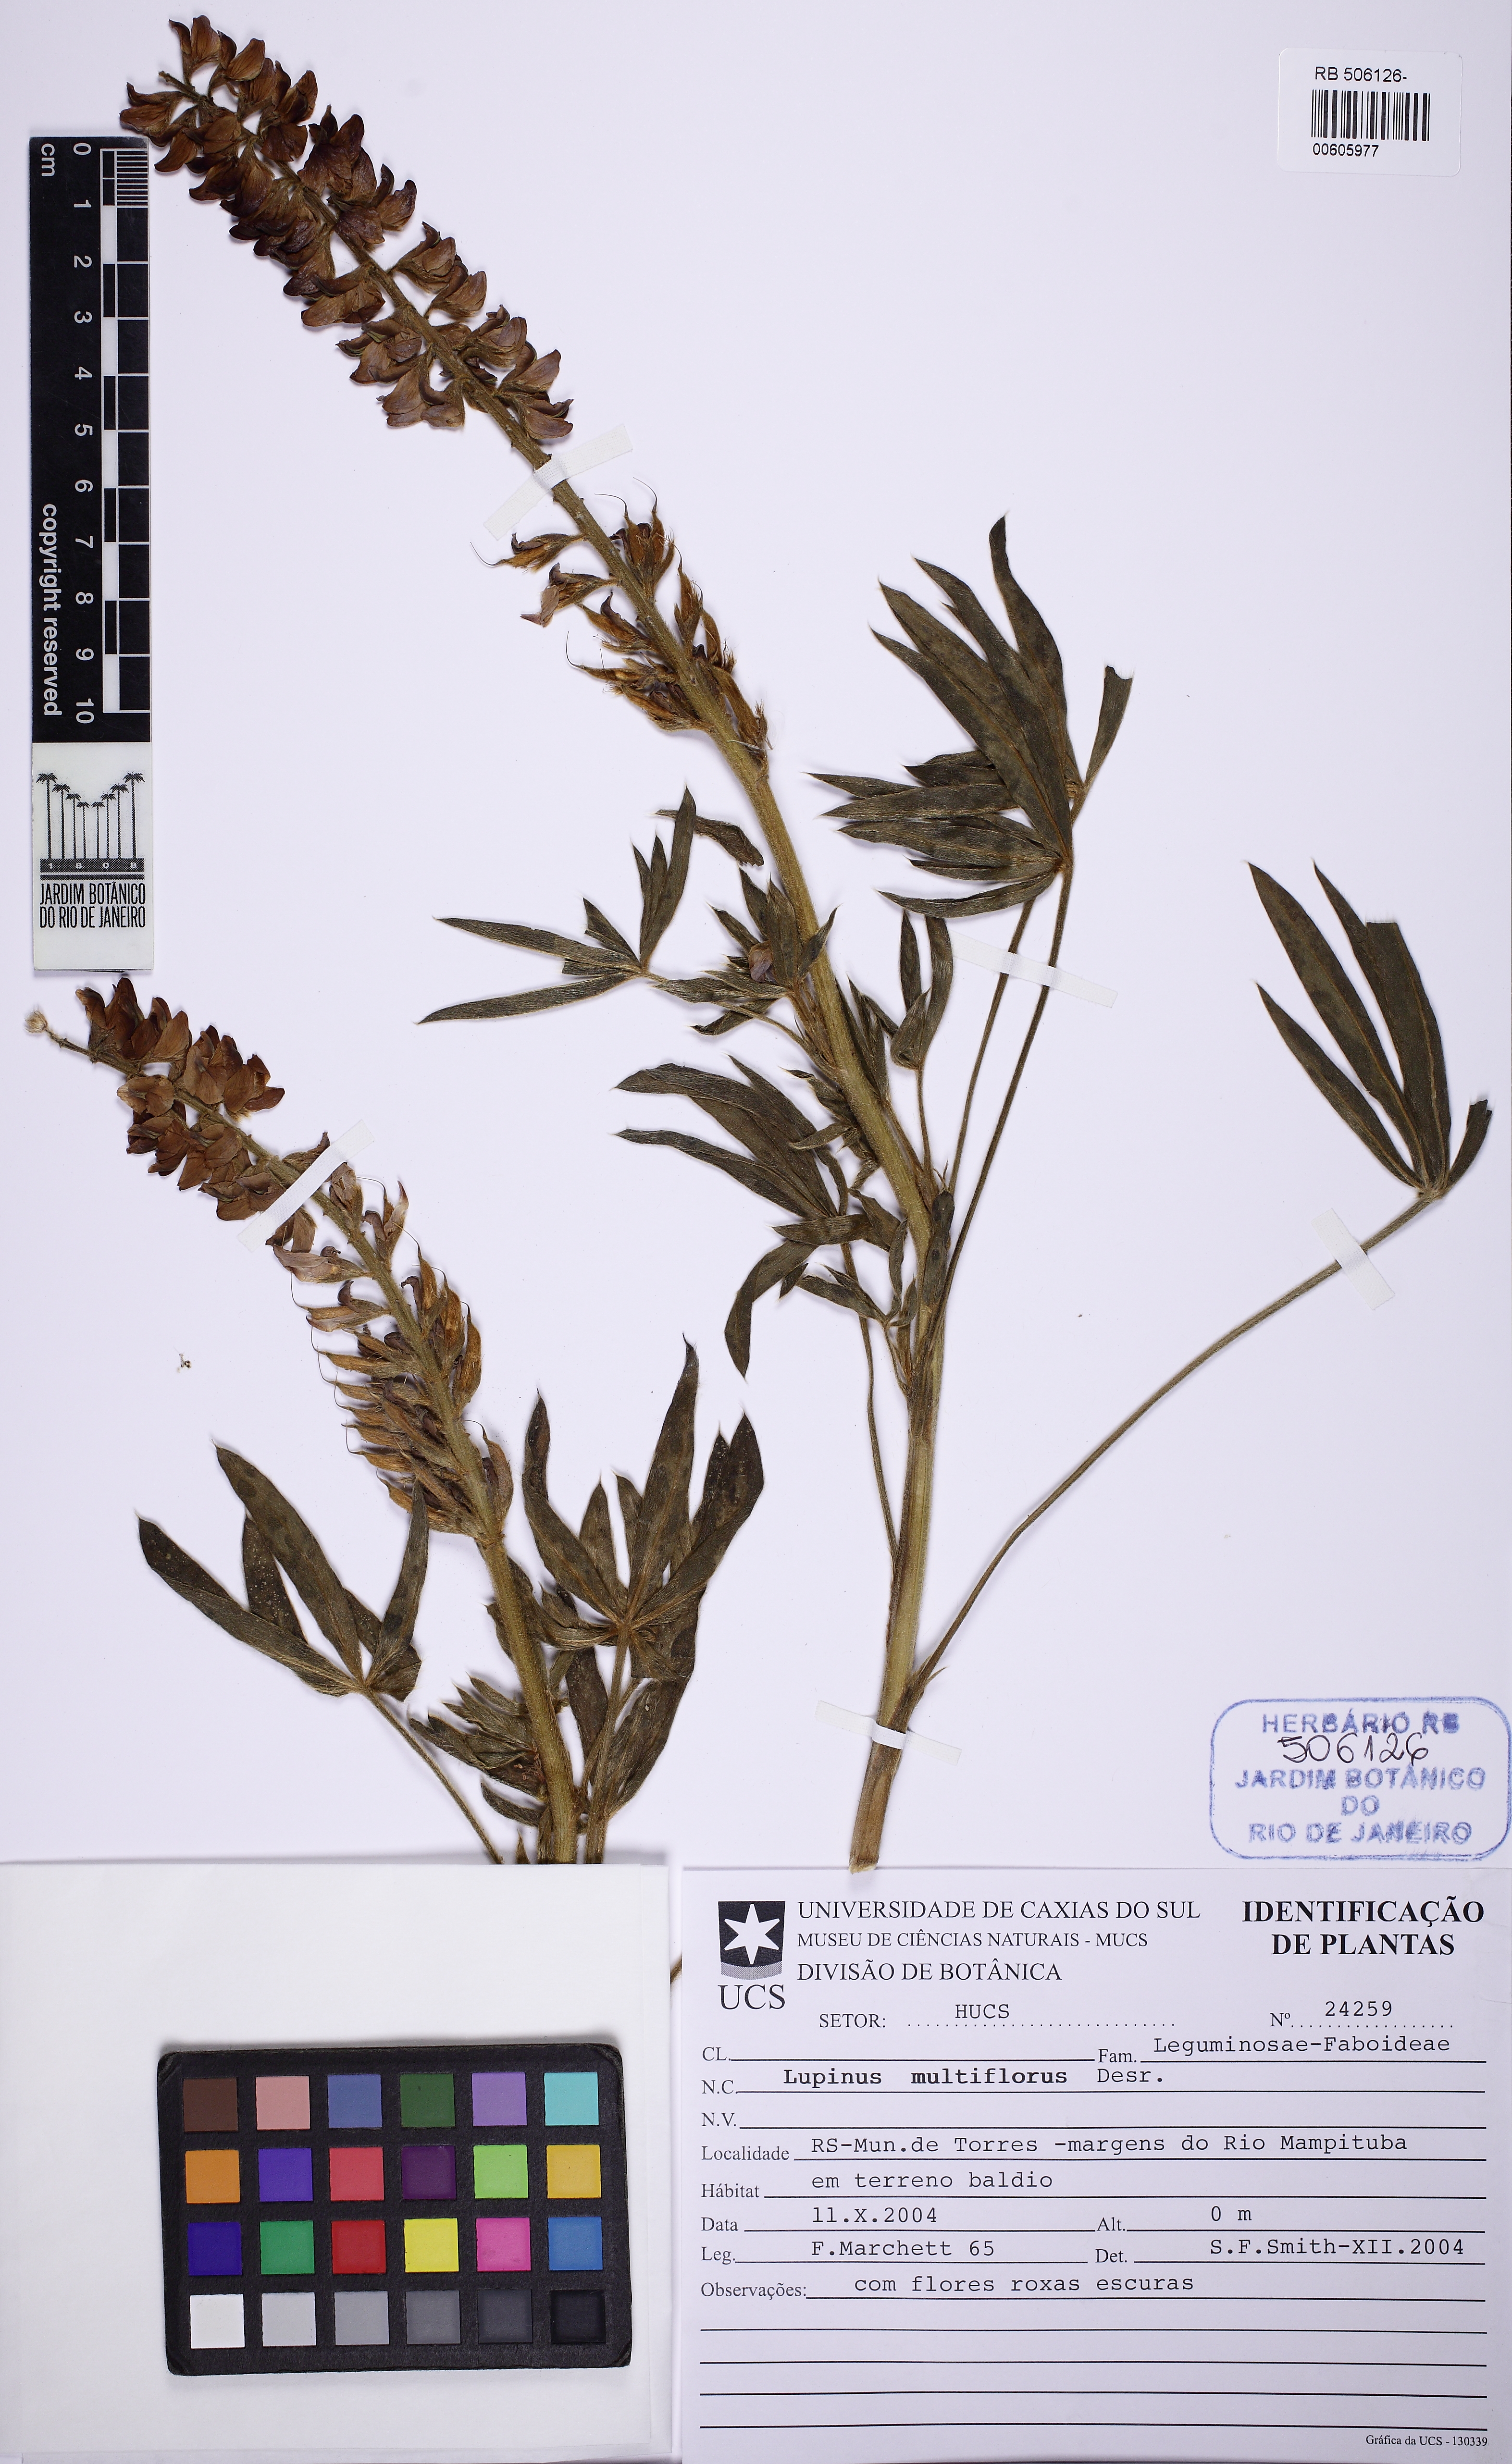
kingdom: Plantae
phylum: Tracheophyta
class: Magnoliopsida
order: Fabales
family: Fabaceae
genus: Lupinus
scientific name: Lupinus multiflorus
